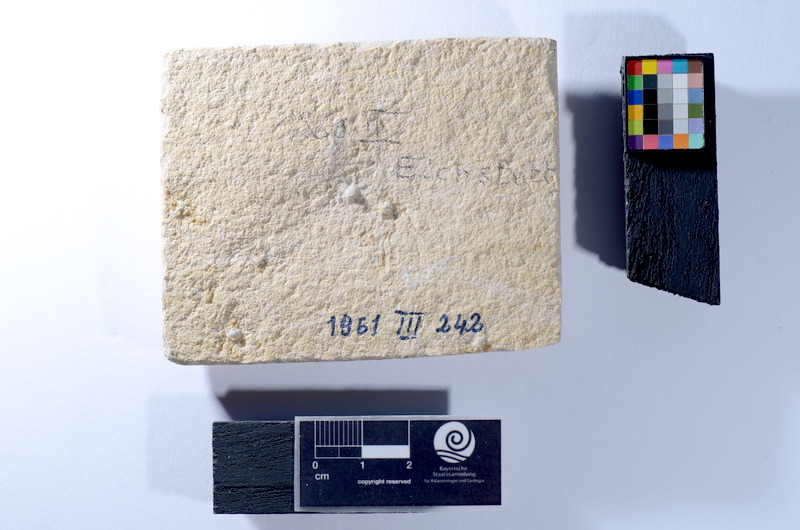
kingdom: Animalia
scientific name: Animalia
